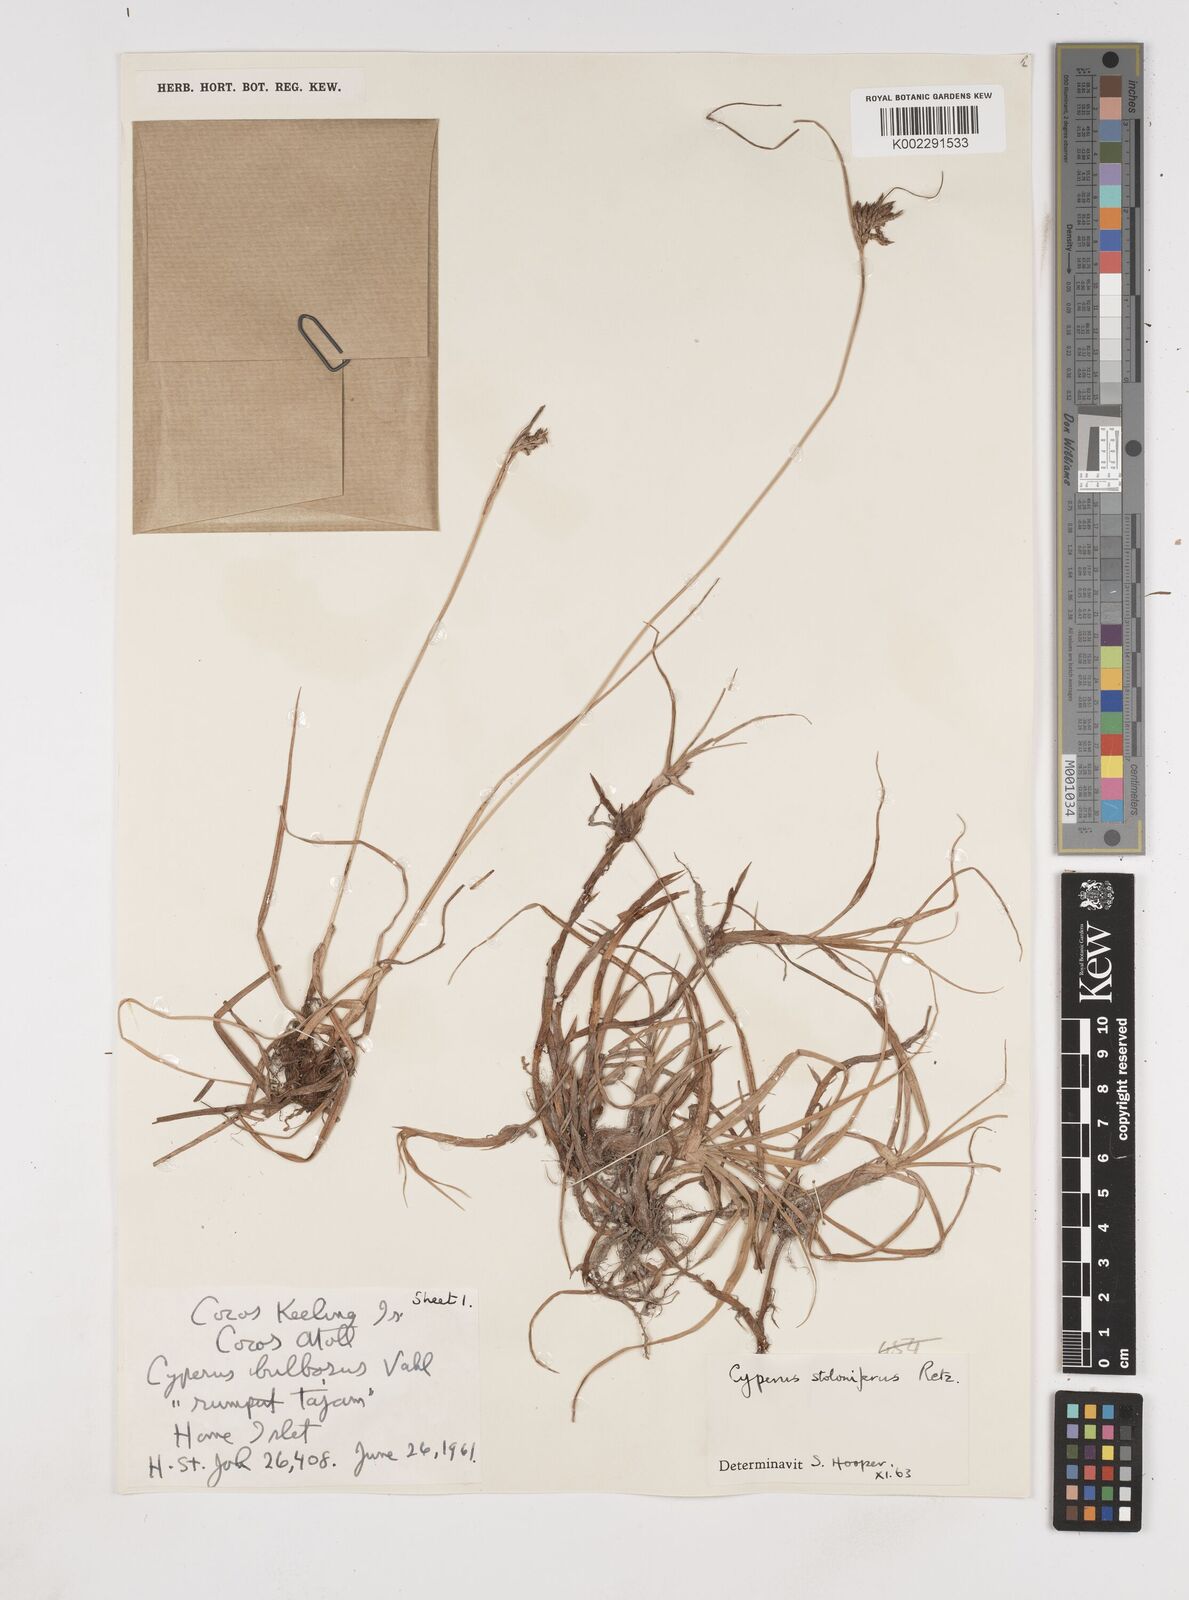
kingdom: Plantae
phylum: Tracheophyta
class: Liliopsida
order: Poales
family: Cyperaceae
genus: Cyperus
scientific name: Cyperus bulbosus
